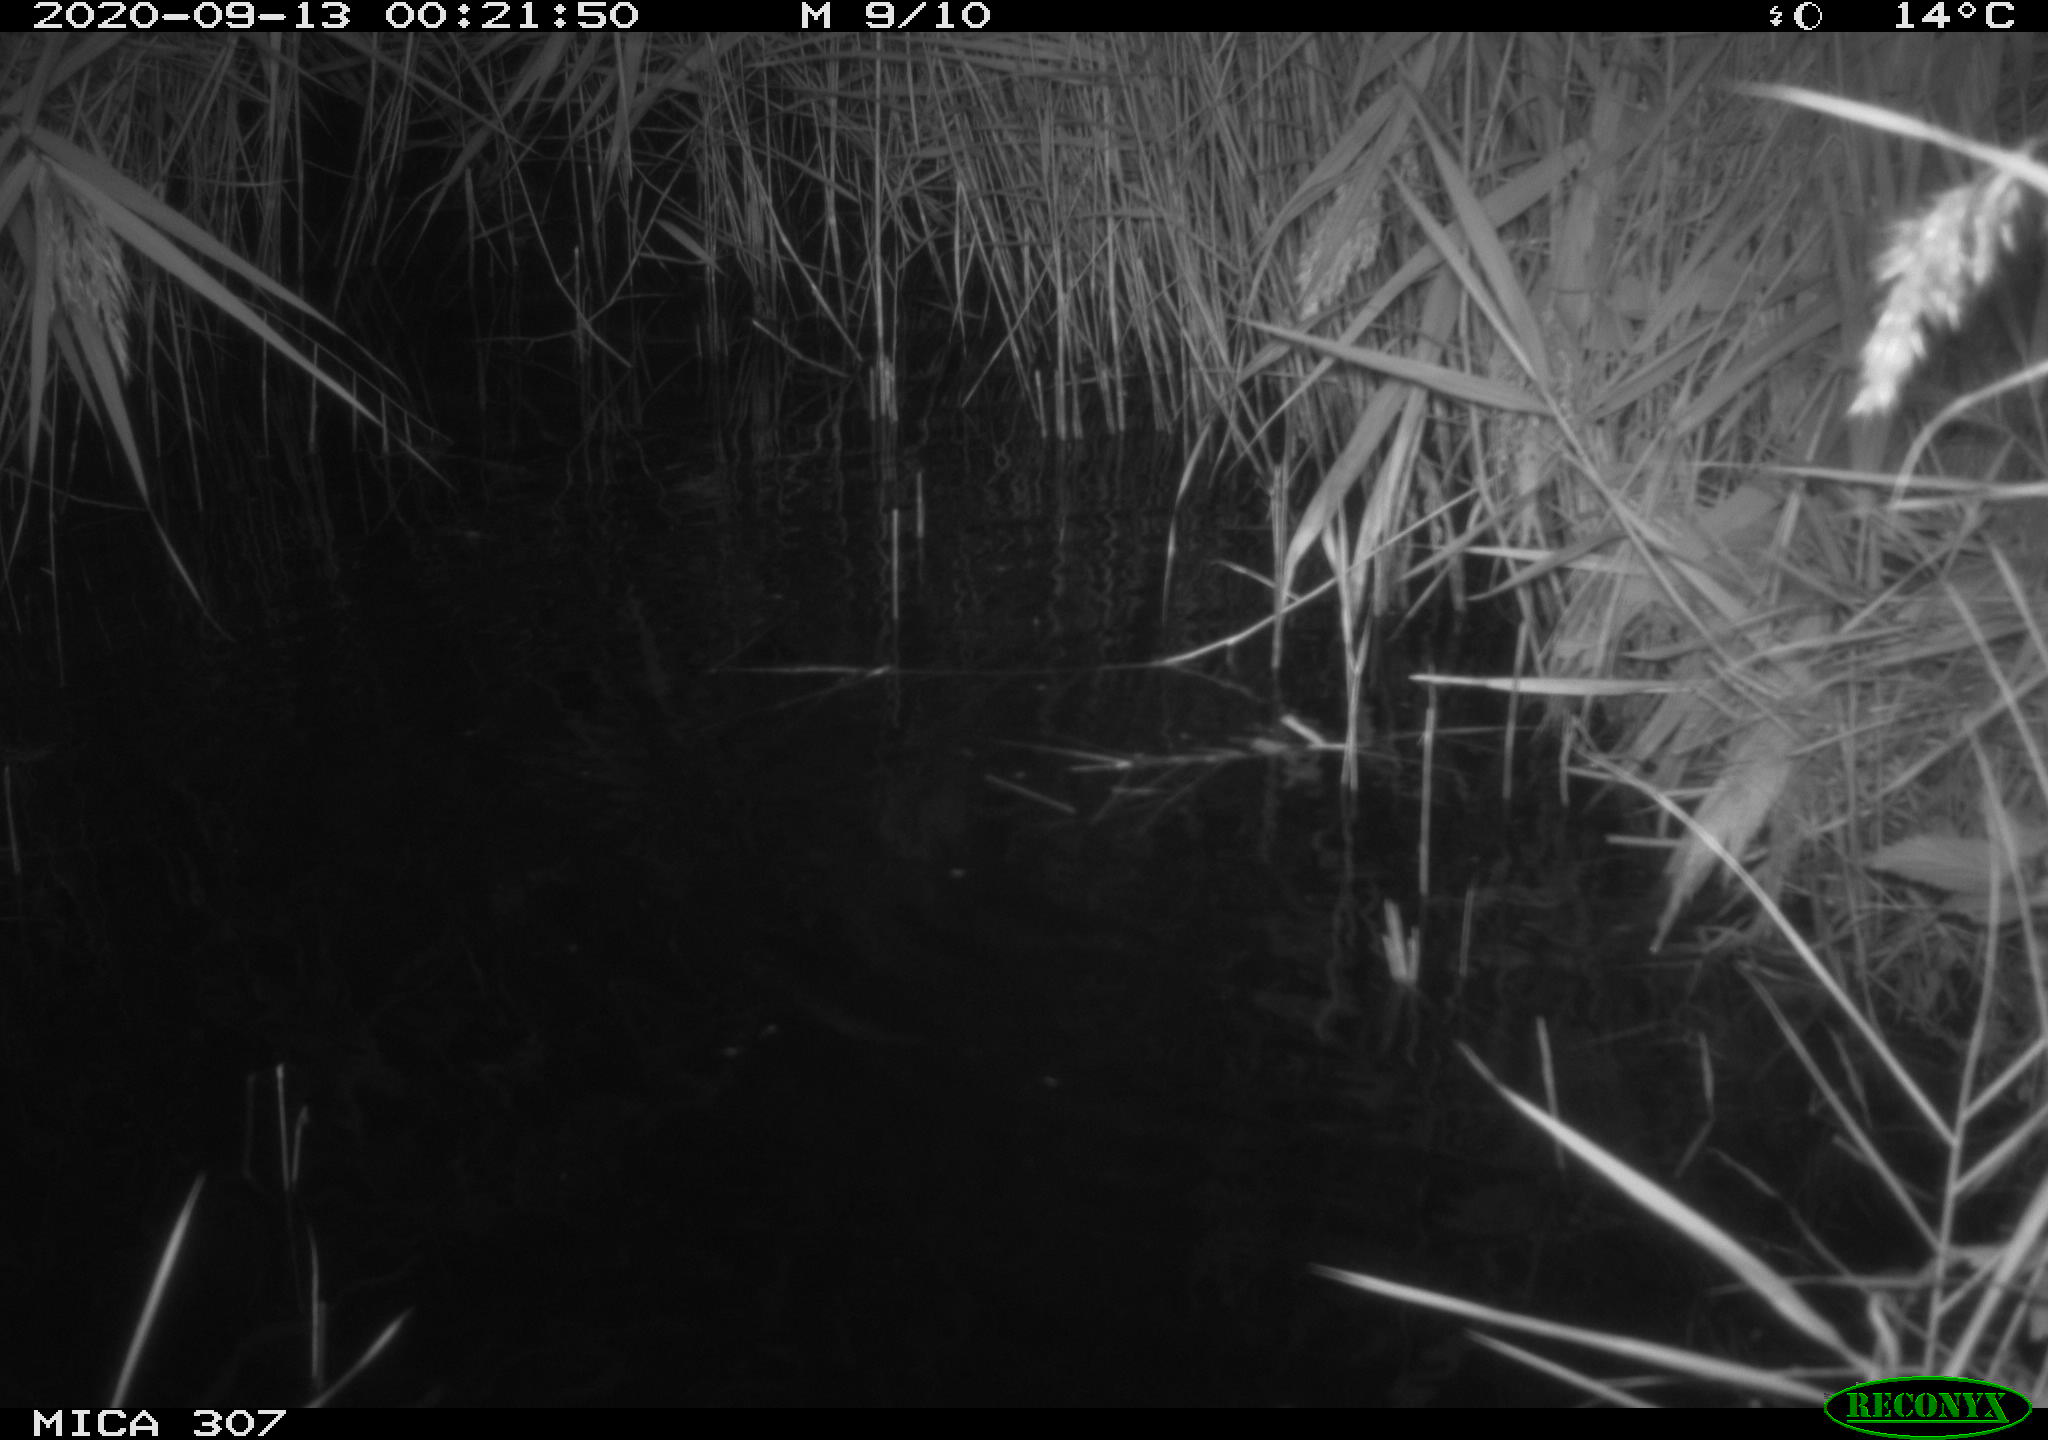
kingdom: Animalia
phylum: Chordata
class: Mammalia
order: Rodentia
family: Muridae
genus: Rattus
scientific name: Rattus norvegicus
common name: Brown rat
